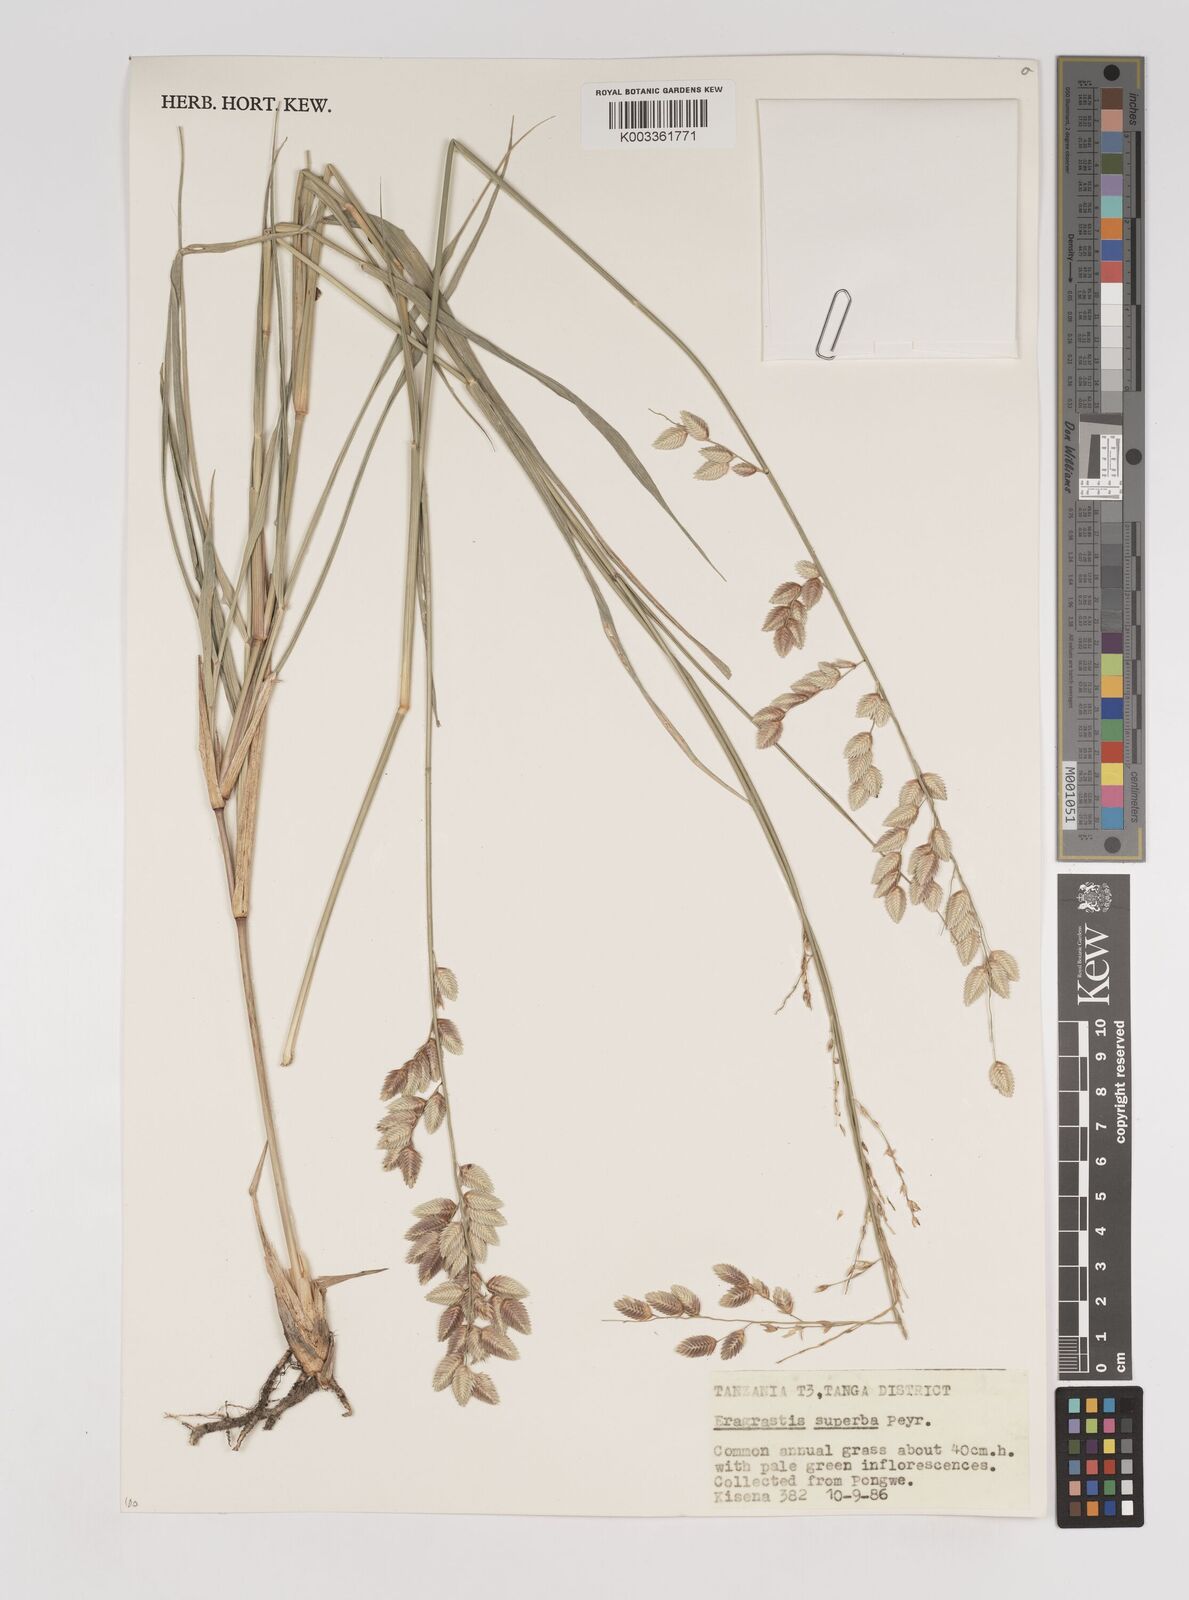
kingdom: Plantae
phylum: Tracheophyta
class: Liliopsida
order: Poales
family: Poaceae
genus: Eragrostis
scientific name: Eragrostis superba
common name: Wilman lovegrass
